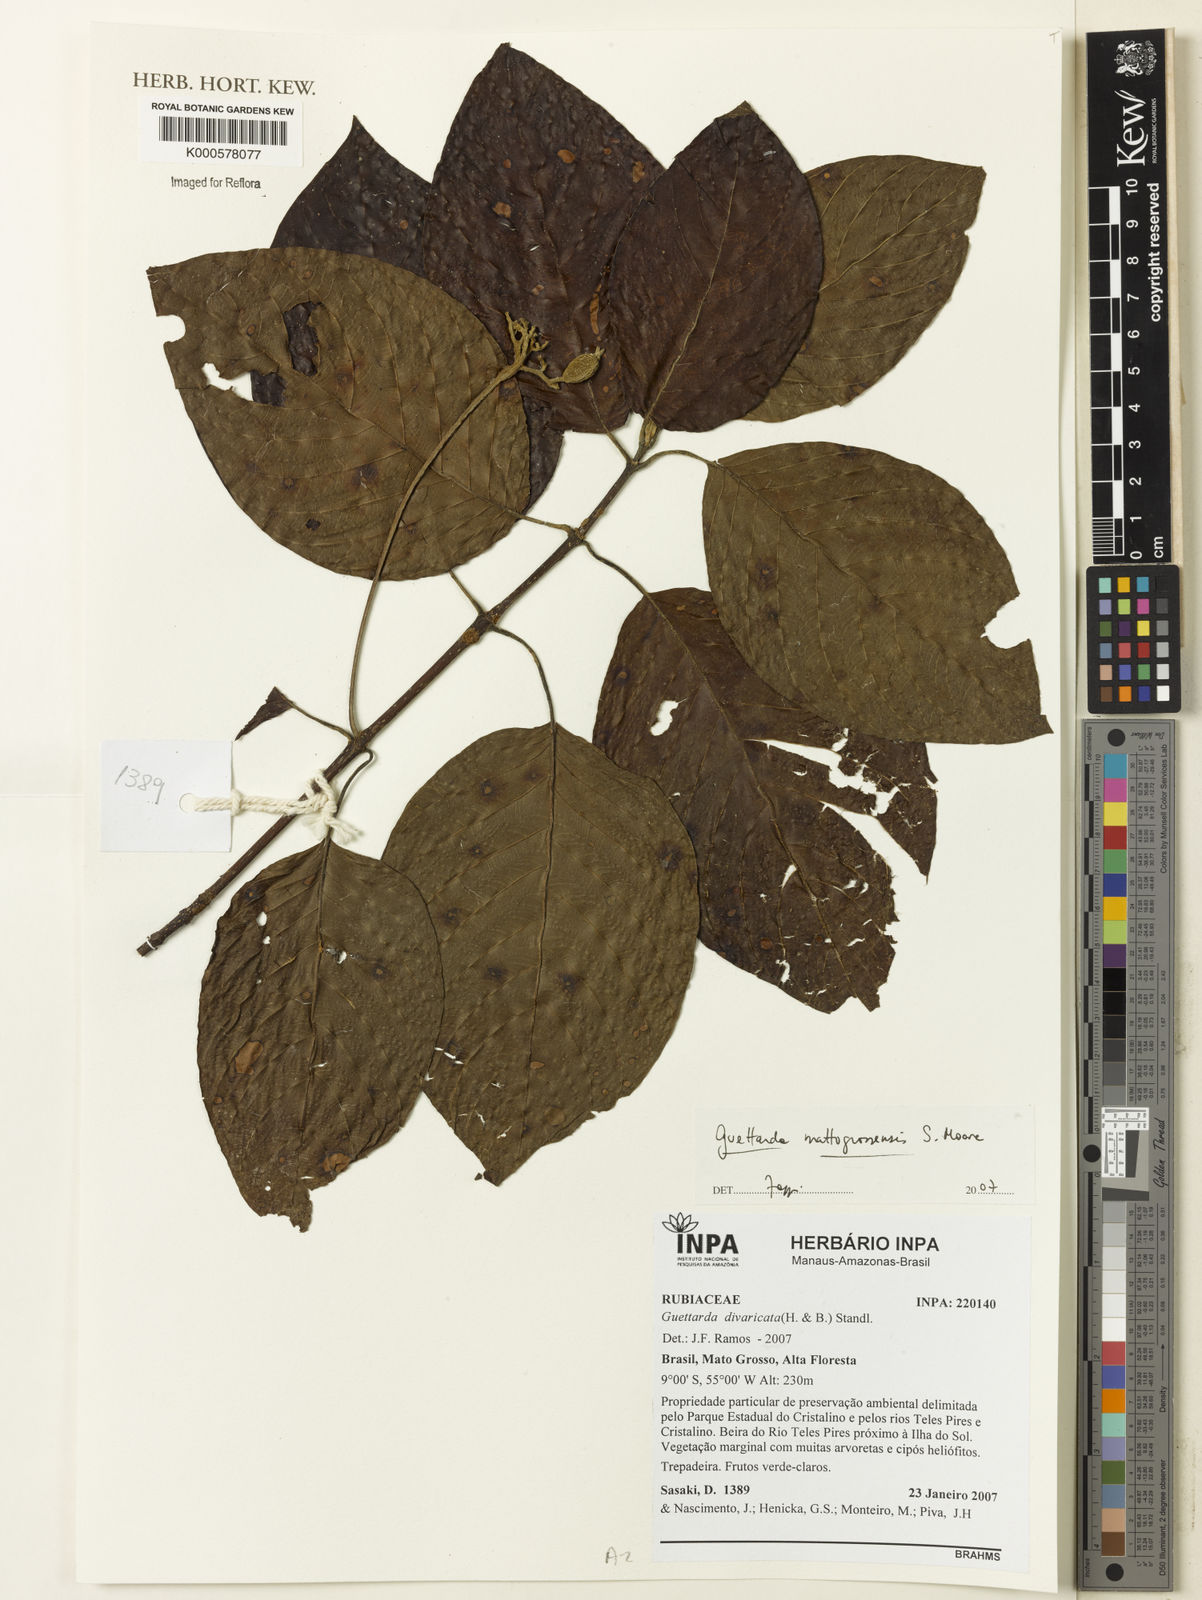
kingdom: Plantae
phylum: Tracheophyta
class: Magnoliopsida
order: Gentianales
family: Rubiaceae
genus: Guettarda
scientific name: Guettarda mattogrossensis
